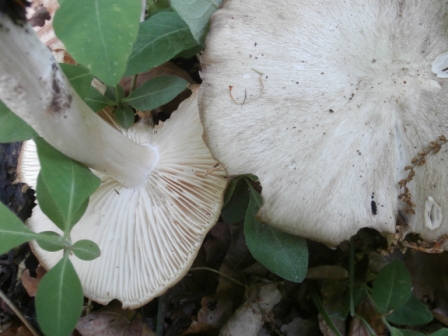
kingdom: Fungi
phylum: Basidiomycota
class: Agaricomycetes
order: Agaricales
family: Tricholomataceae
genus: Megacollybia
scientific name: Megacollybia platyphylla
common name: bredbladet væbnerhat
